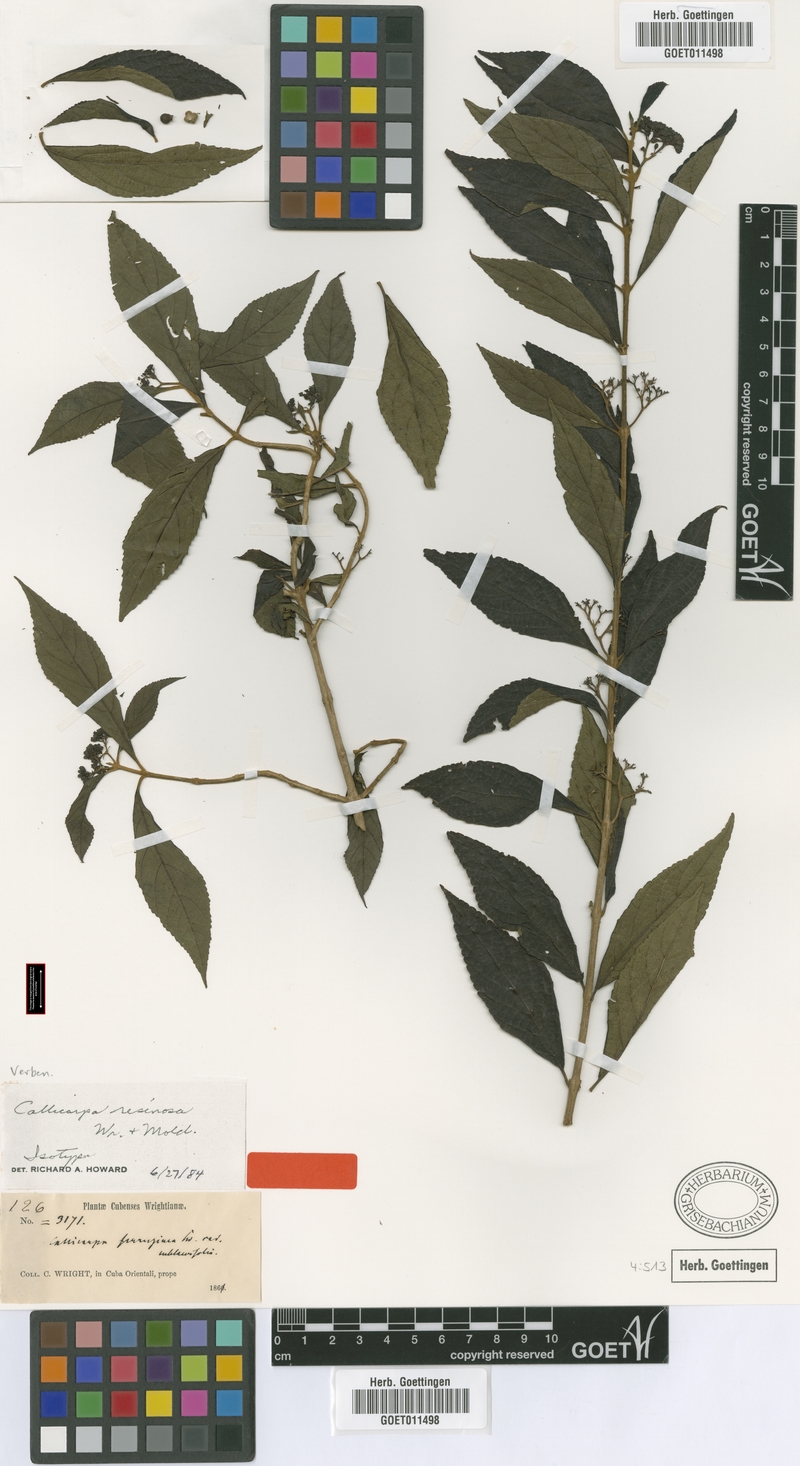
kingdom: Plantae
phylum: Tracheophyta
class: Magnoliopsida
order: Lamiales
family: Lamiaceae
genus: Callicarpa
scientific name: Callicarpa resinosa
